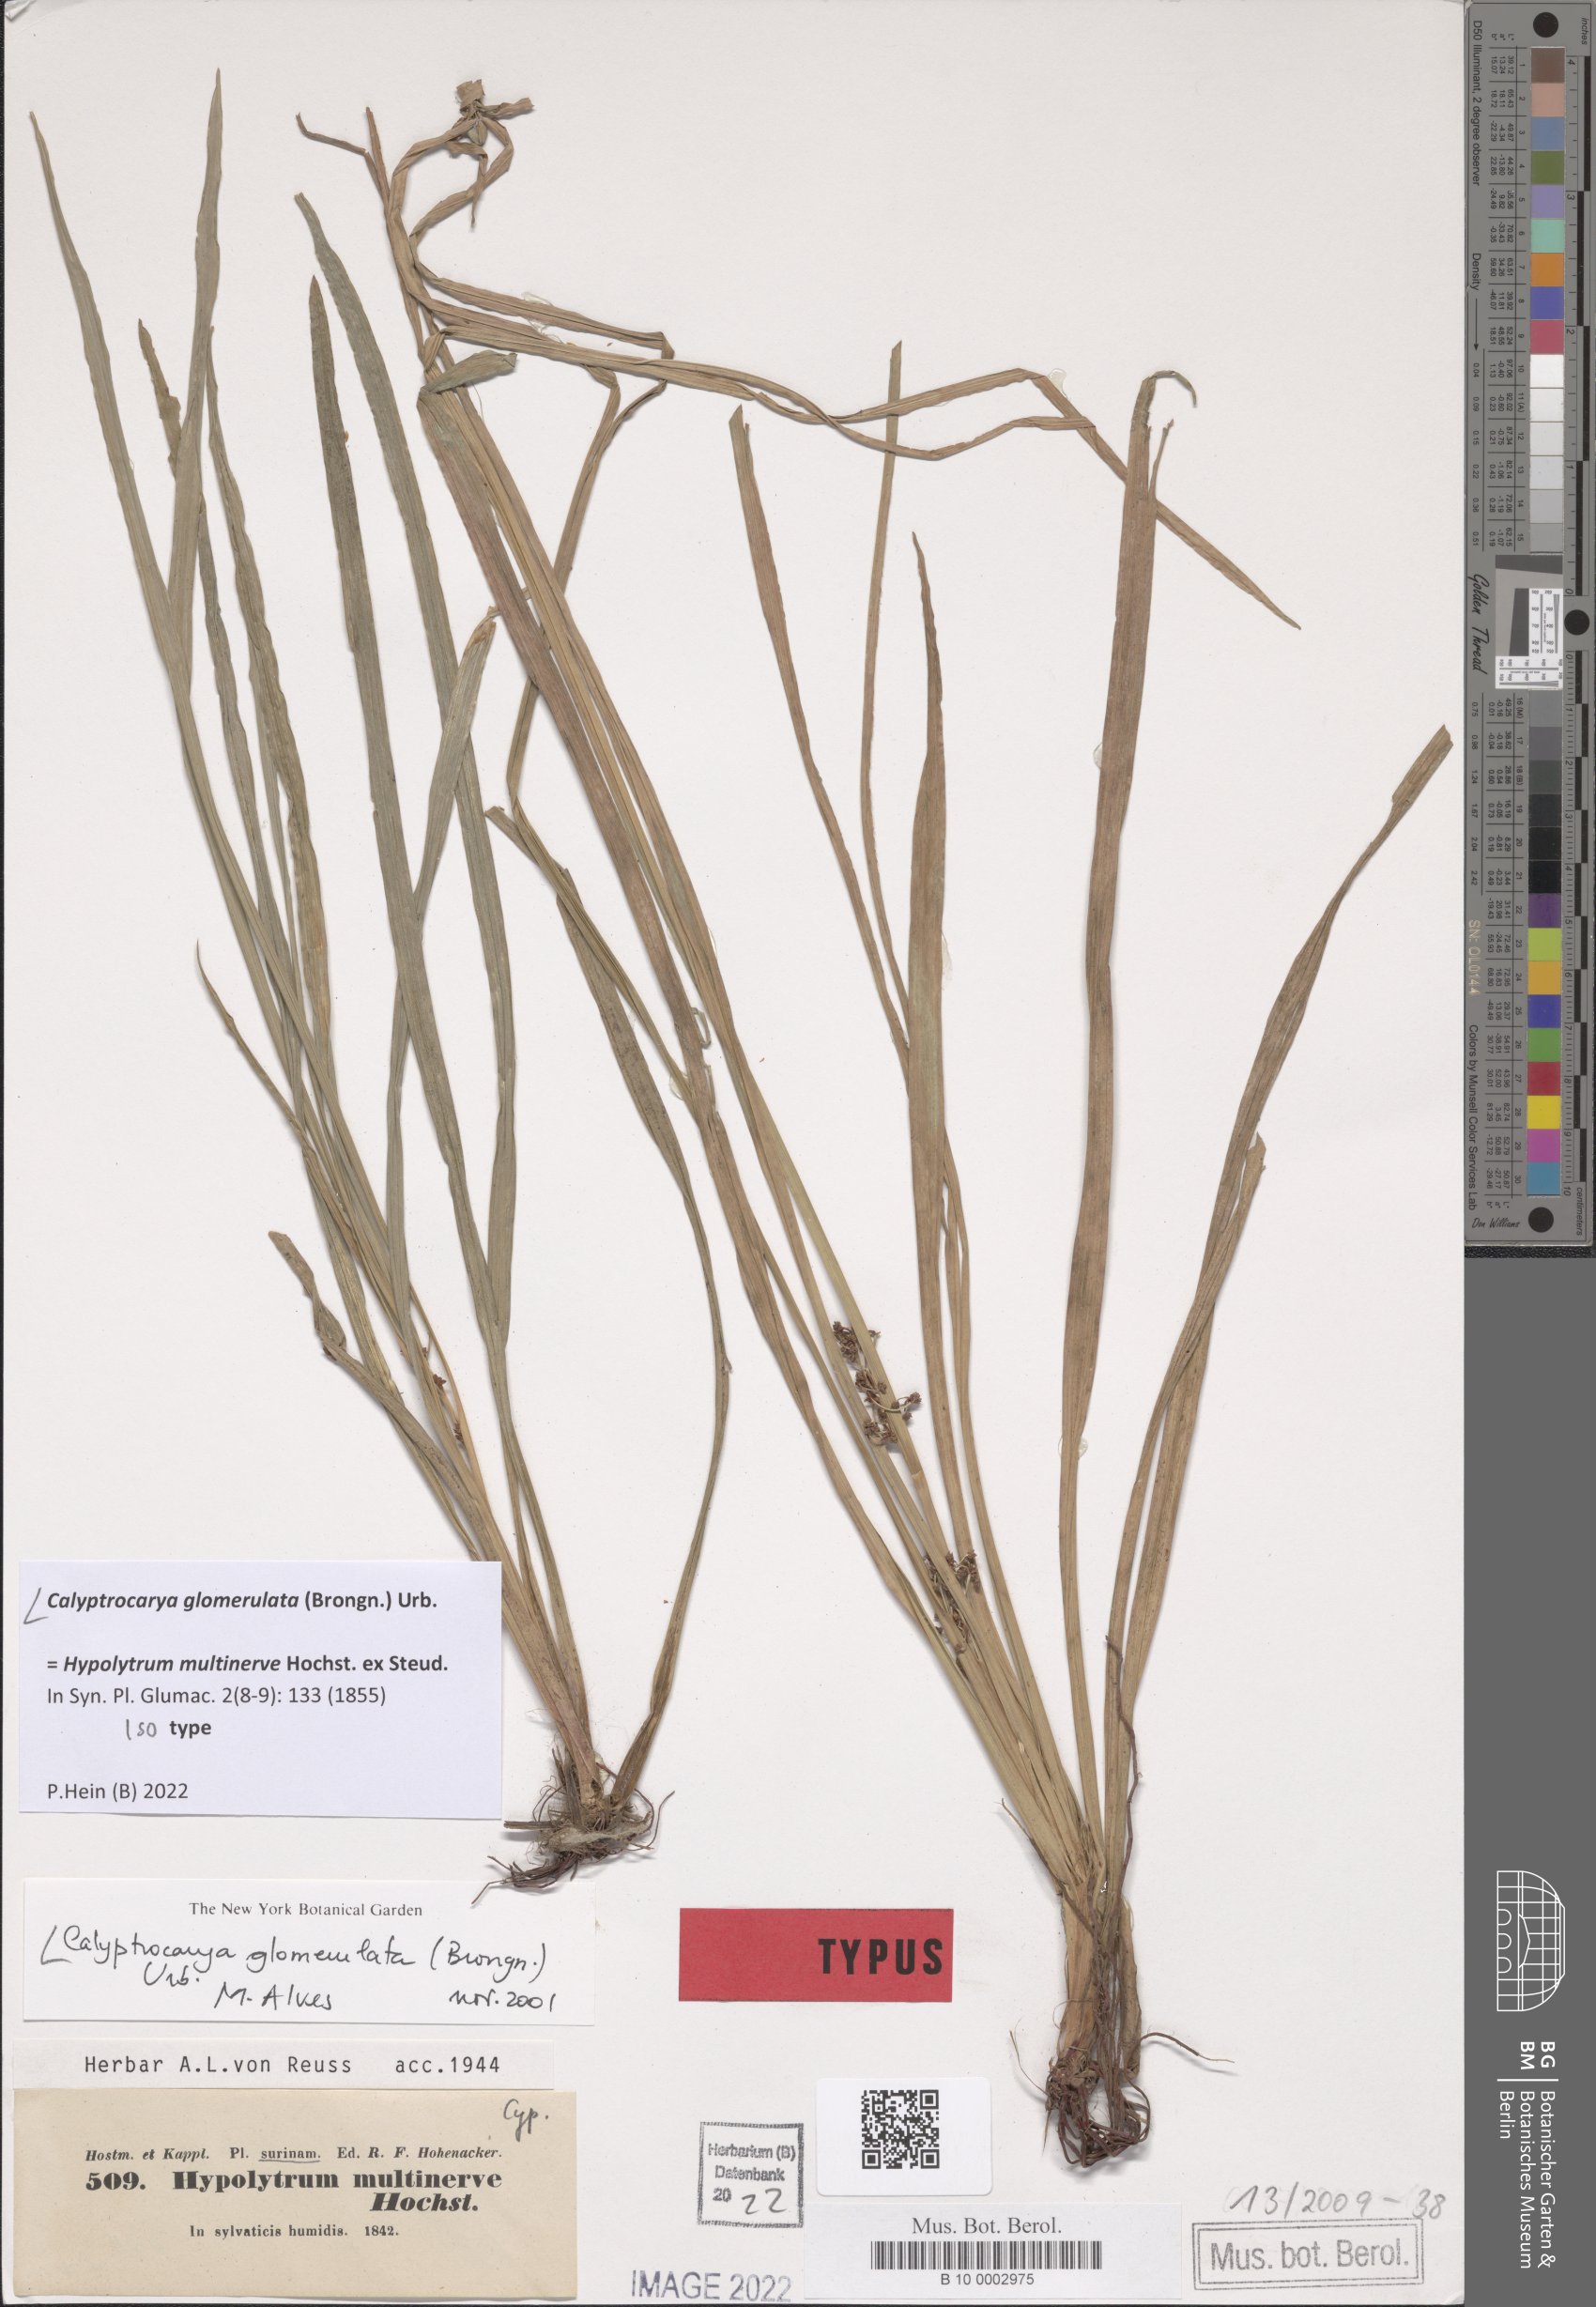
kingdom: Plantae
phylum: Tracheophyta
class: Liliopsida
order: Poales
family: Cyperaceae
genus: Calyptrocarya
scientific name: Calyptrocarya glomerulata
